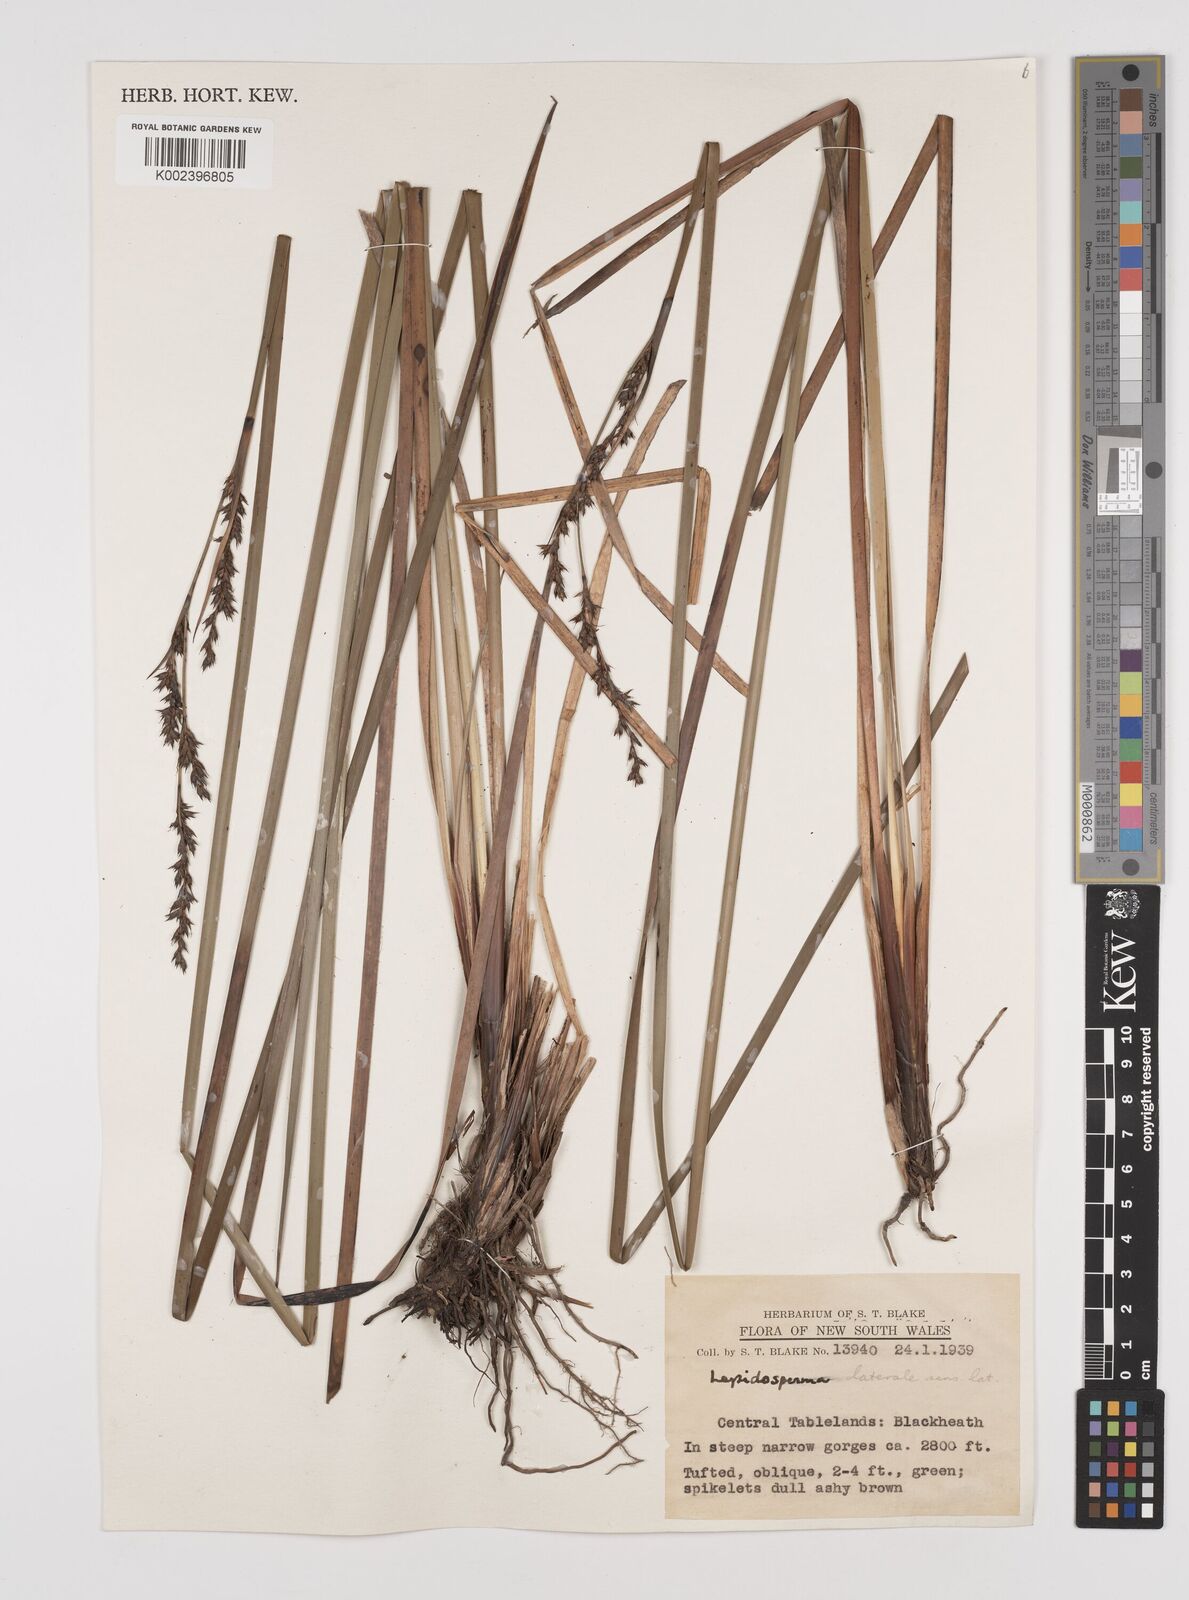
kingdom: Plantae
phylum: Tracheophyta
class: Liliopsida
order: Poales
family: Cyperaceae
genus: Lepidosperma
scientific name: Lepidosperma laterale
